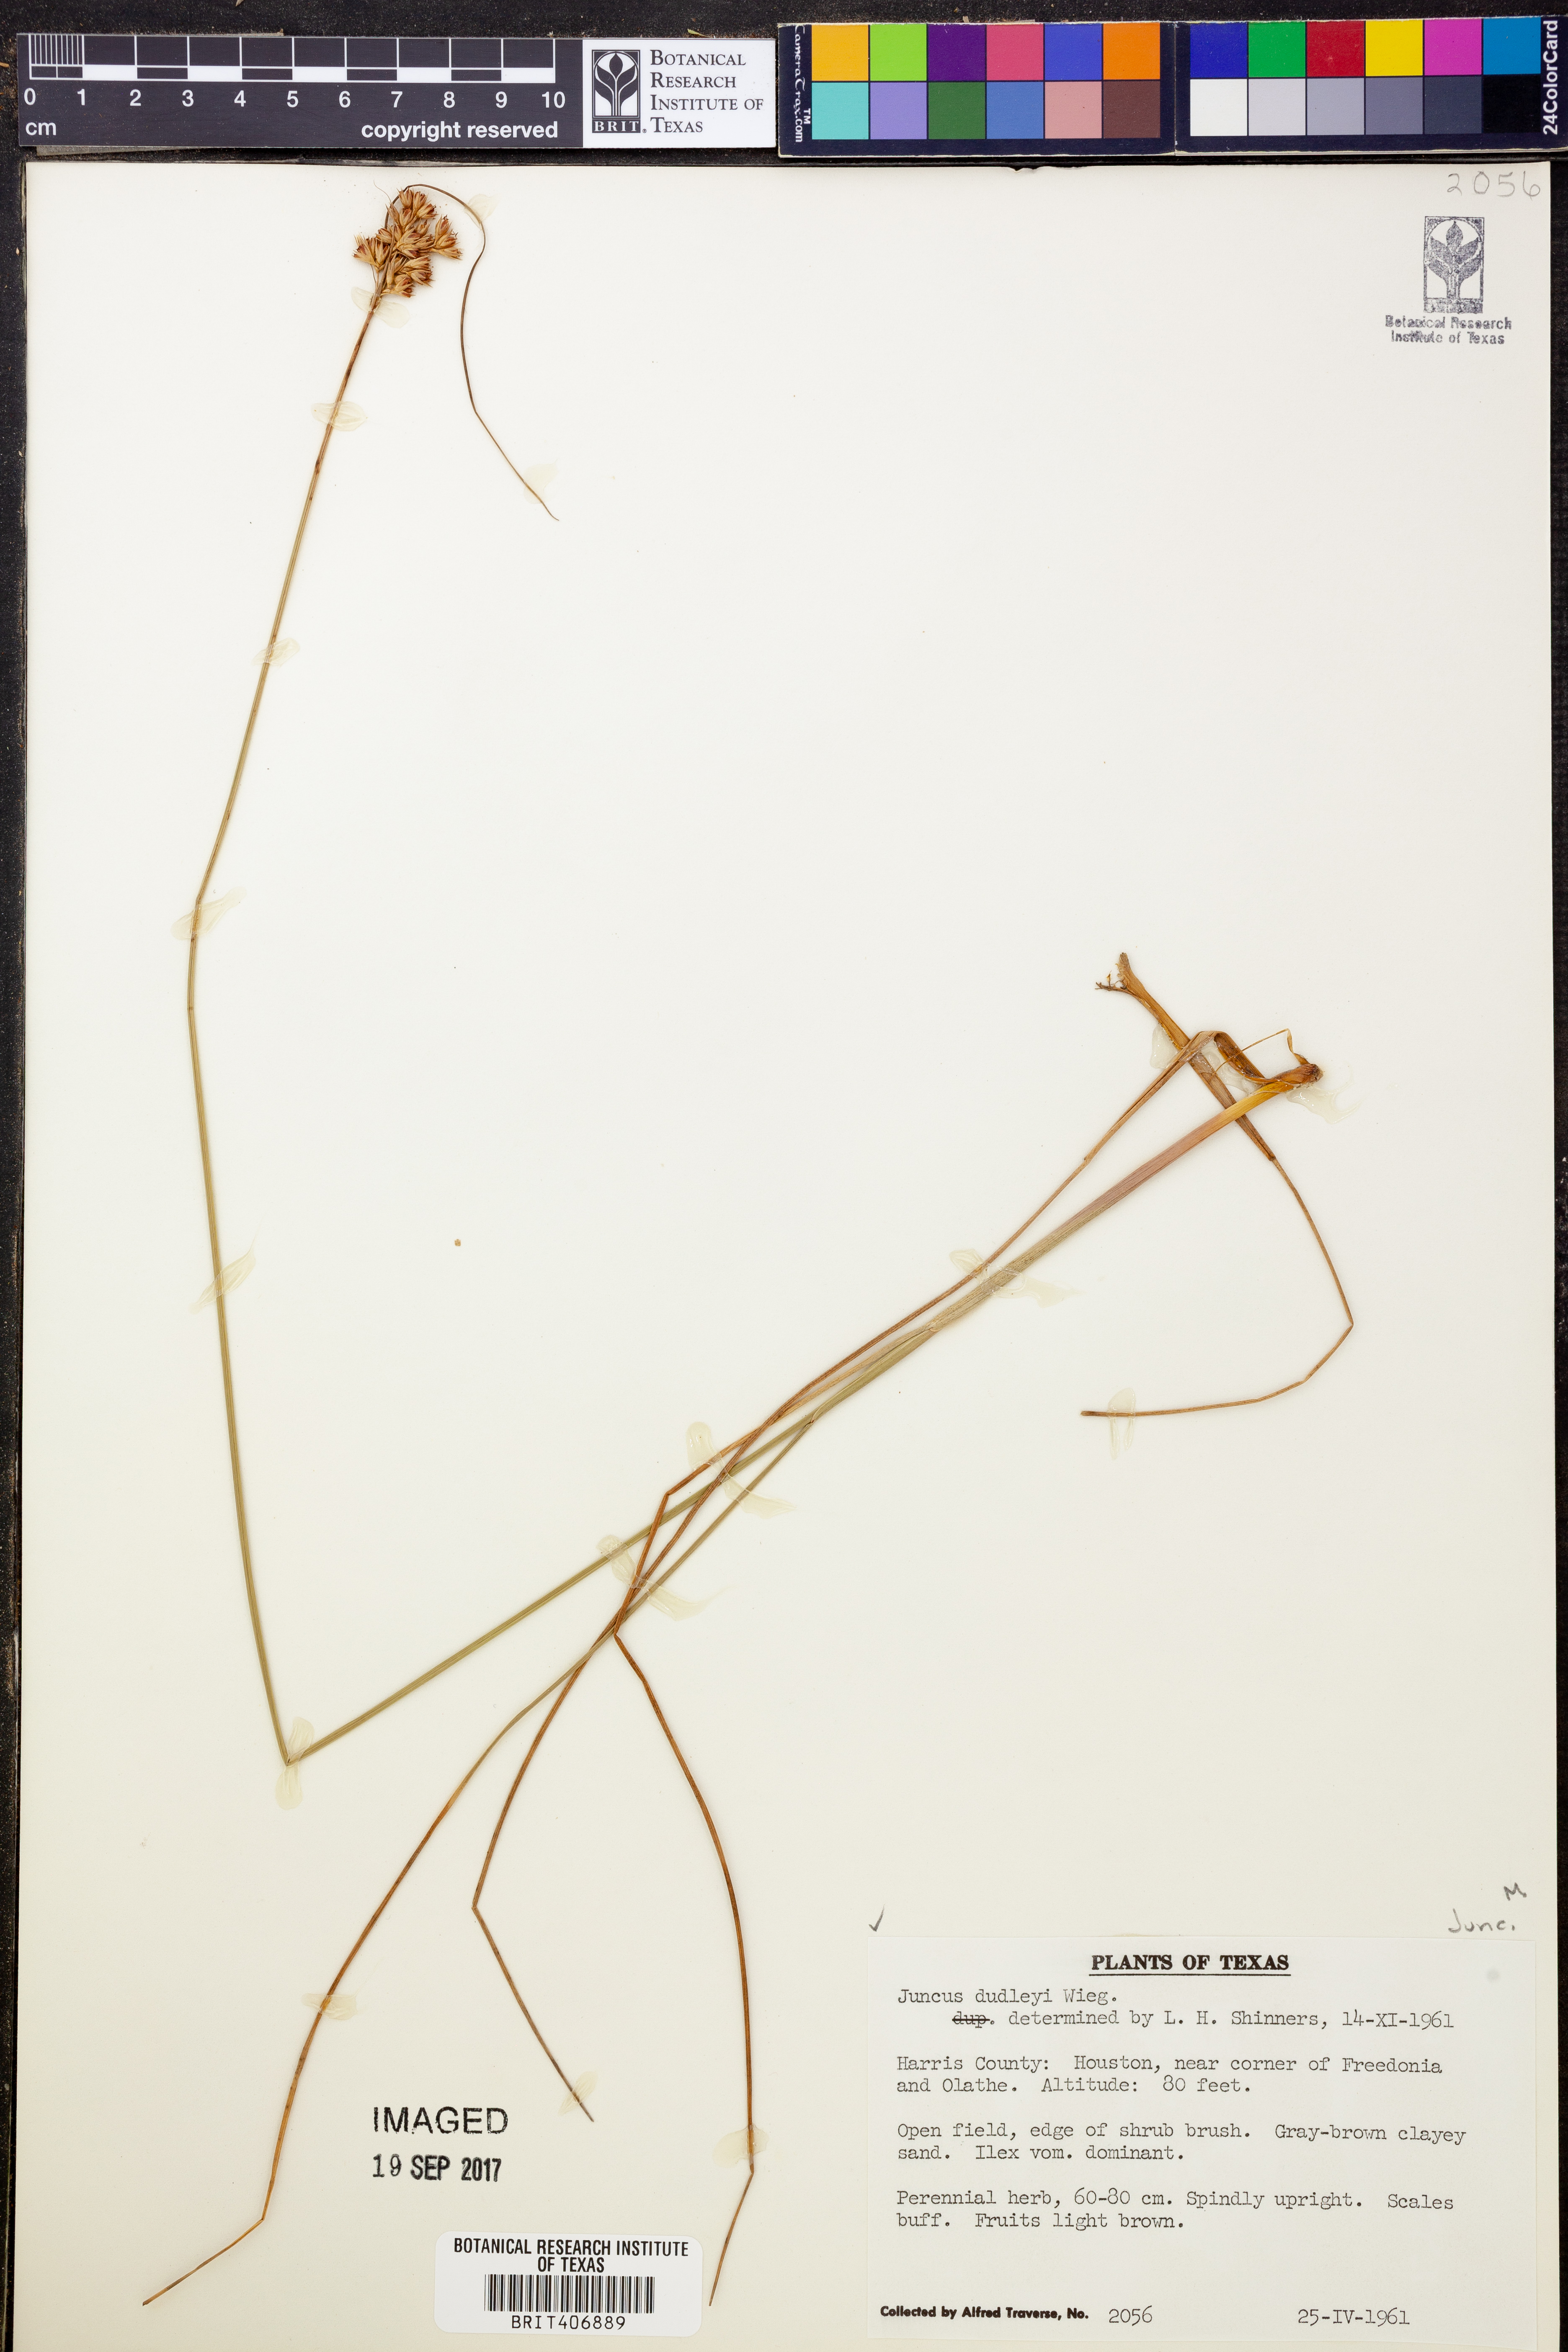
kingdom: Plantae
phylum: Tracheophyta
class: Liliopsida
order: Poales
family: Juncaceae
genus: Juncus
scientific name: Juncus dudleyi
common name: Dudley's rush
